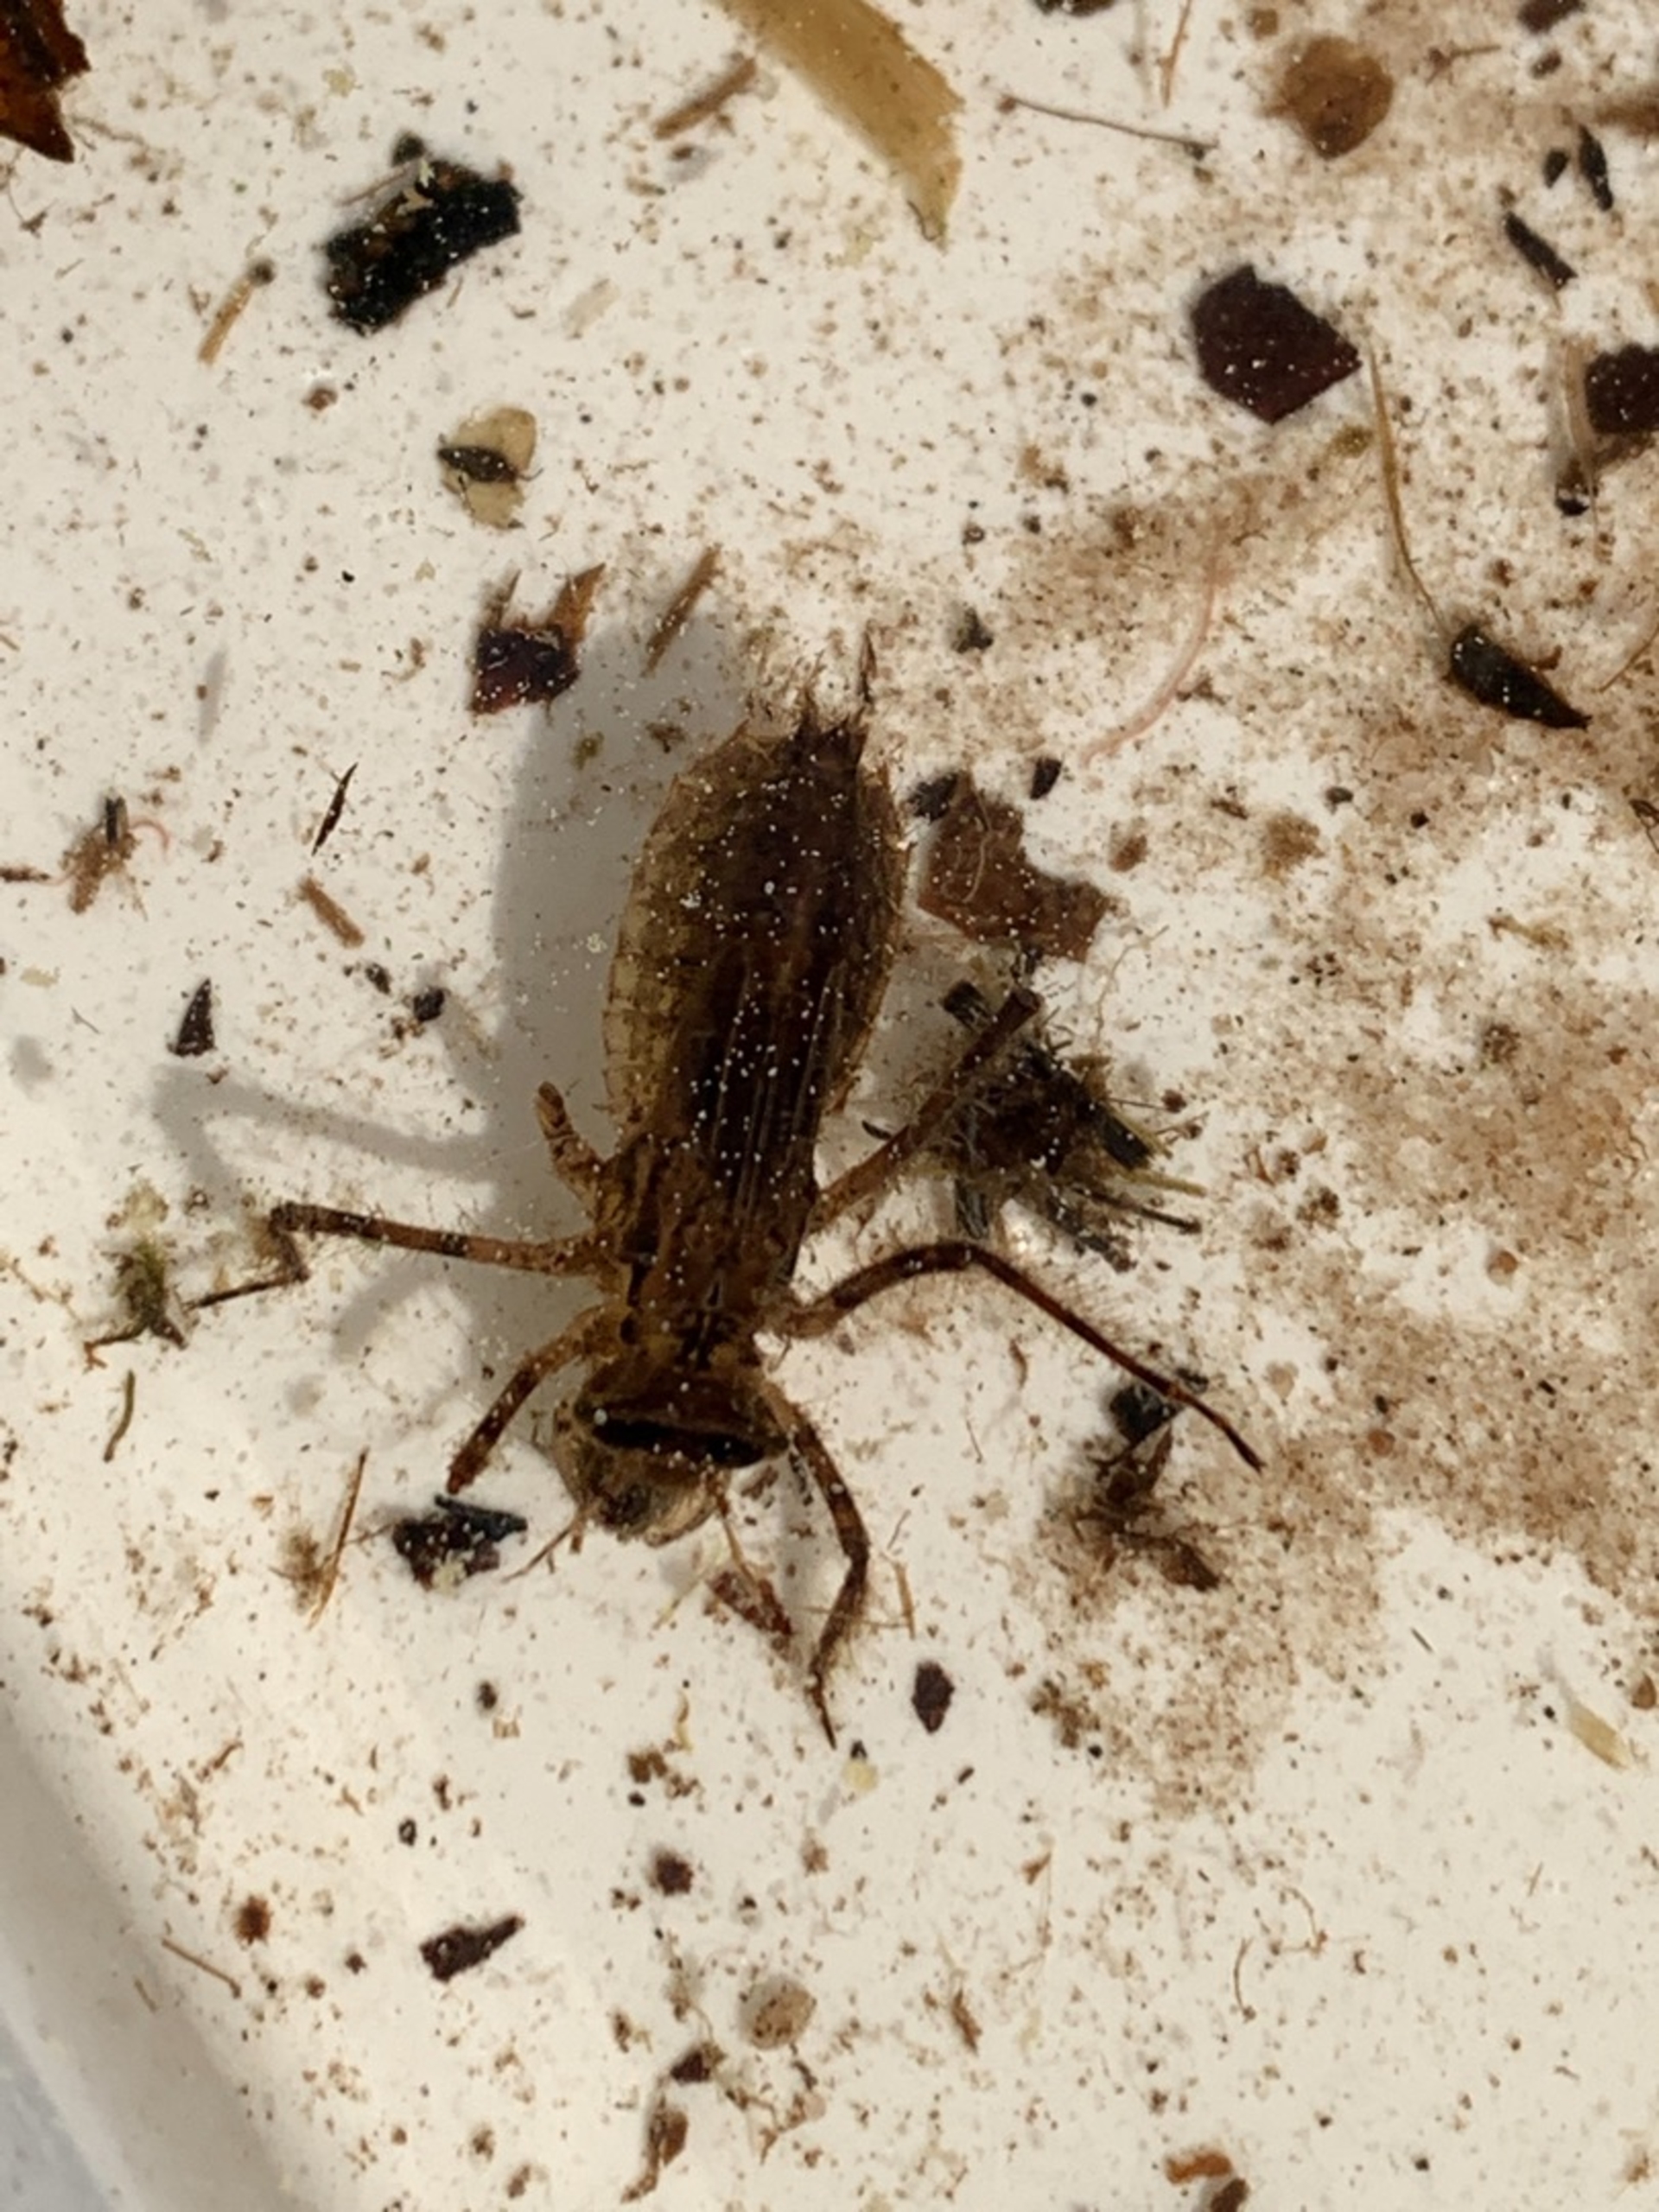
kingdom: Animalia
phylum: Arthropoda
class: Insecta
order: Odonata
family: Corduliidae
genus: Cordulia
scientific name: Cordulia aenea
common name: Grøn smaragdlibel
